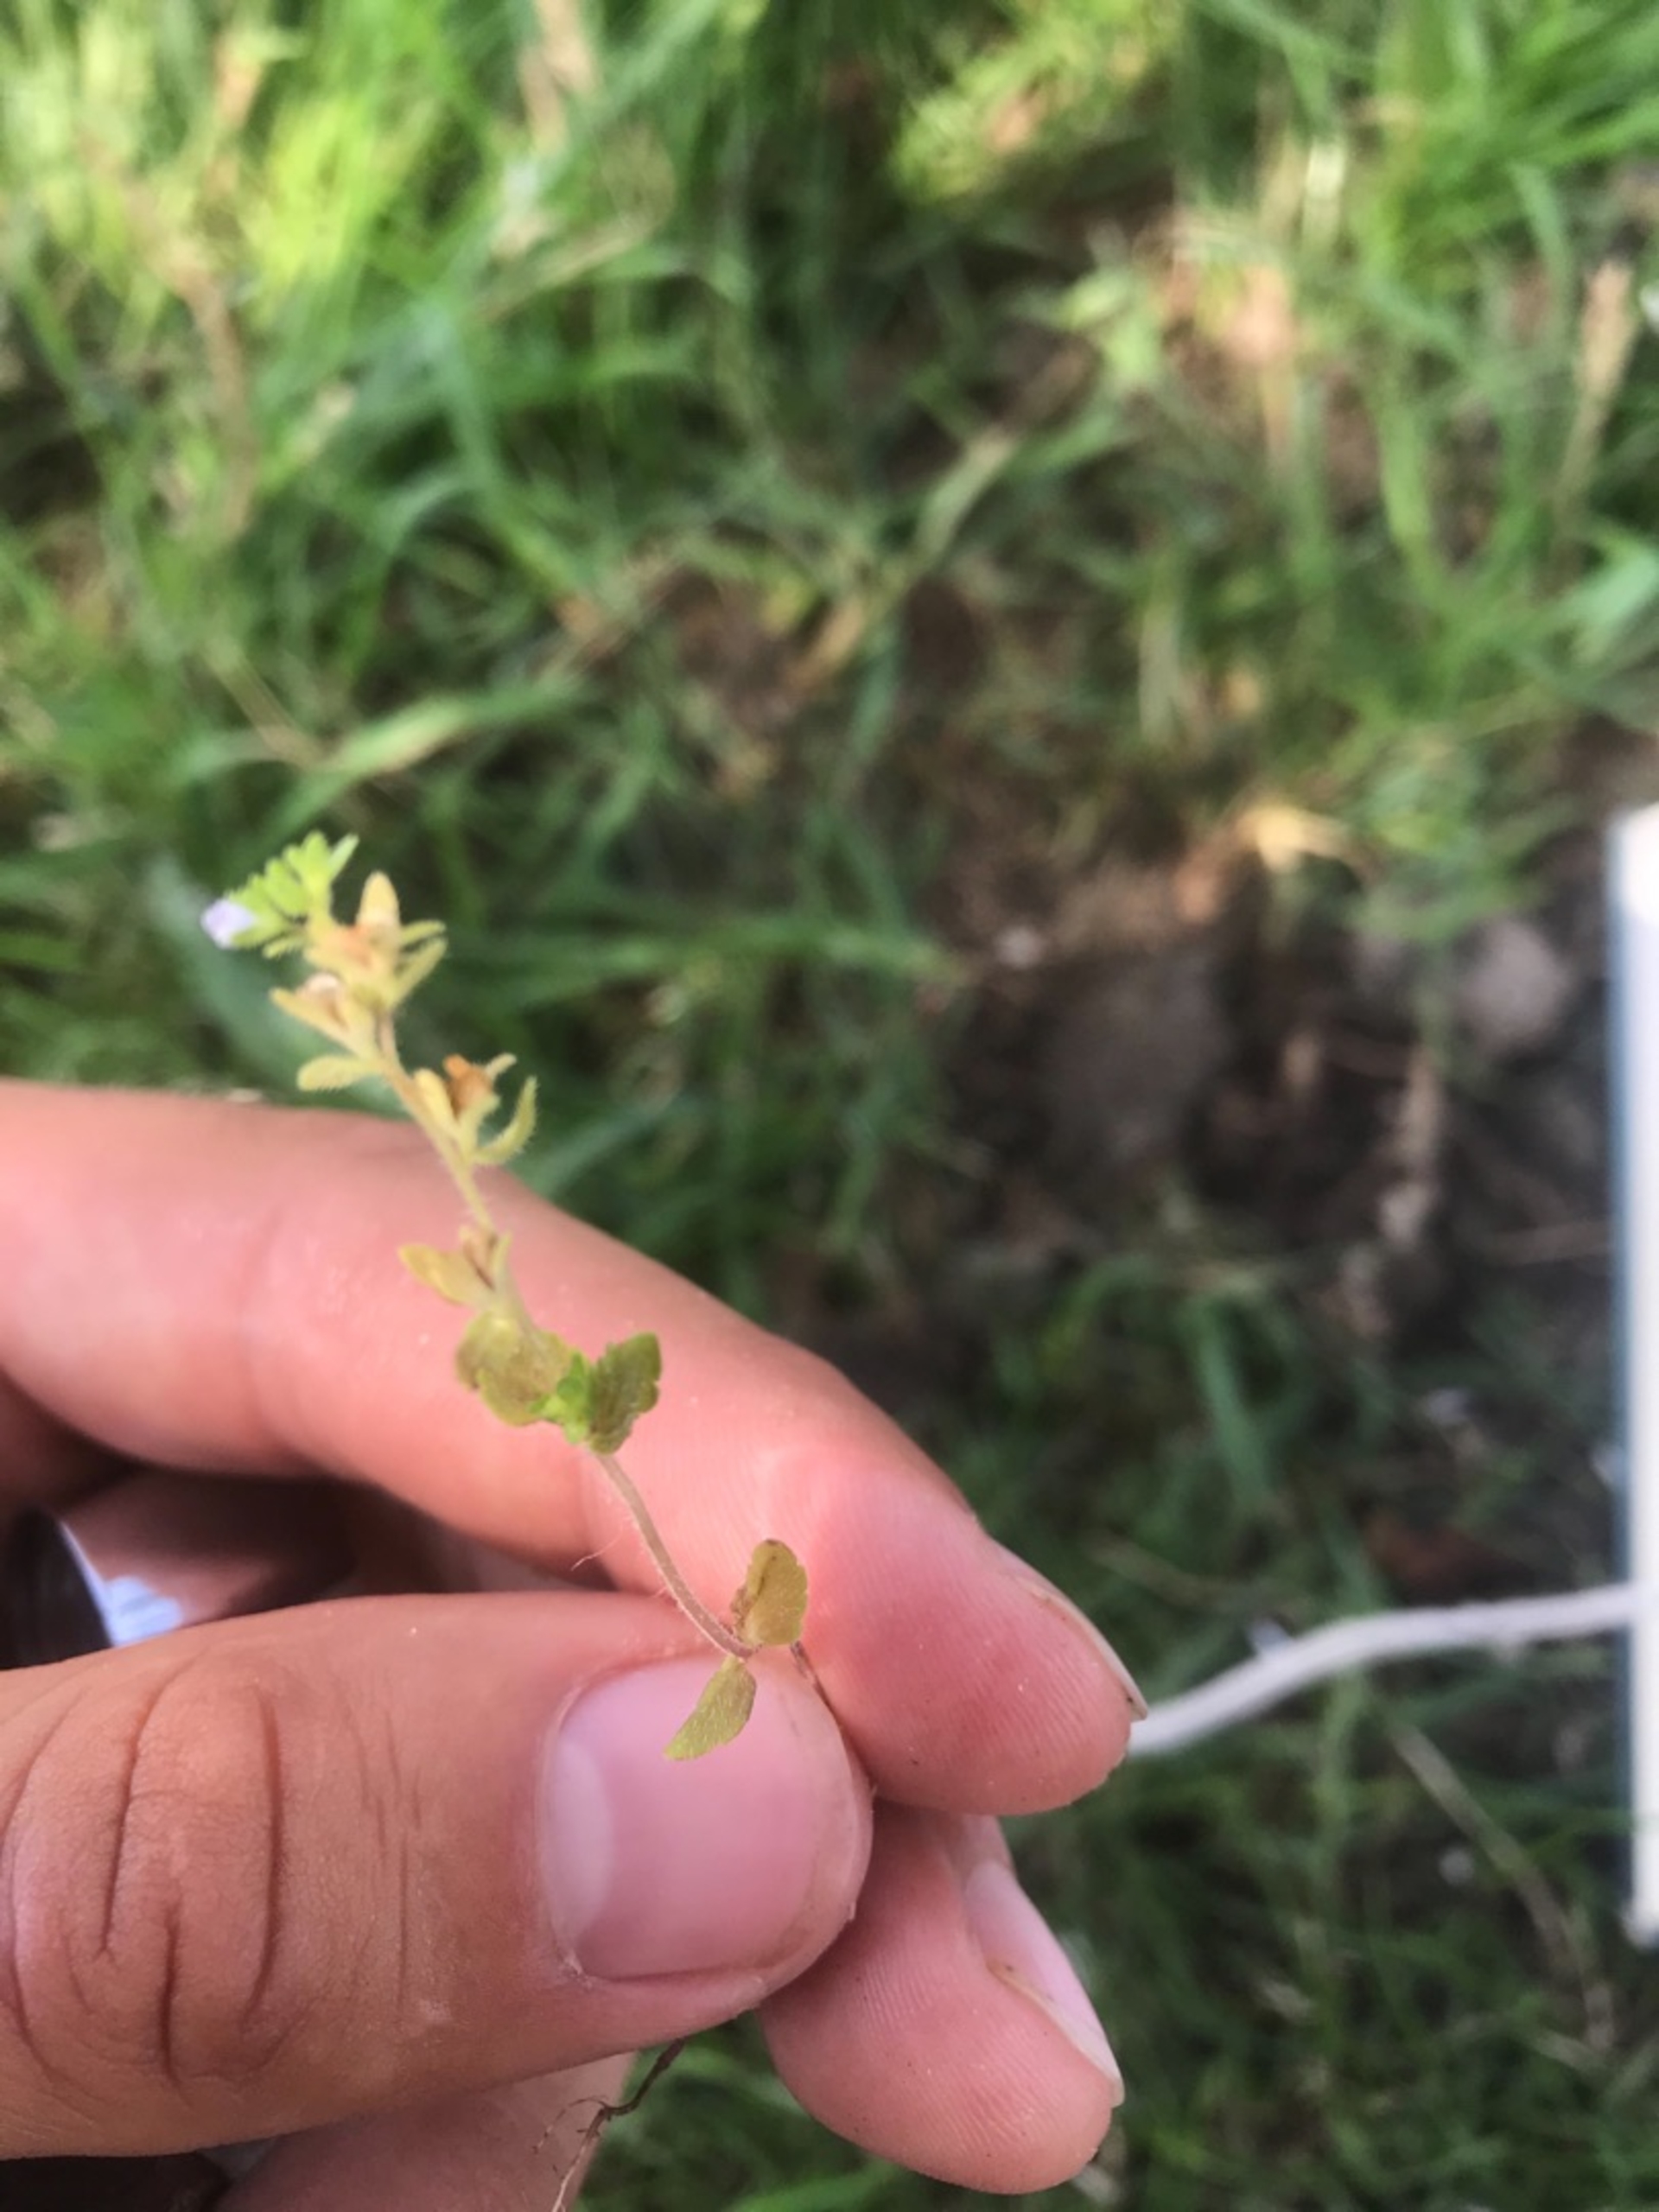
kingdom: Plantae
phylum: Tracheophyta
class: Magnoliopsida
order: Lamiales
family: Plantaginaceae
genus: Veronica
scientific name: Veronica arvensis
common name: Mark-ærenpris
